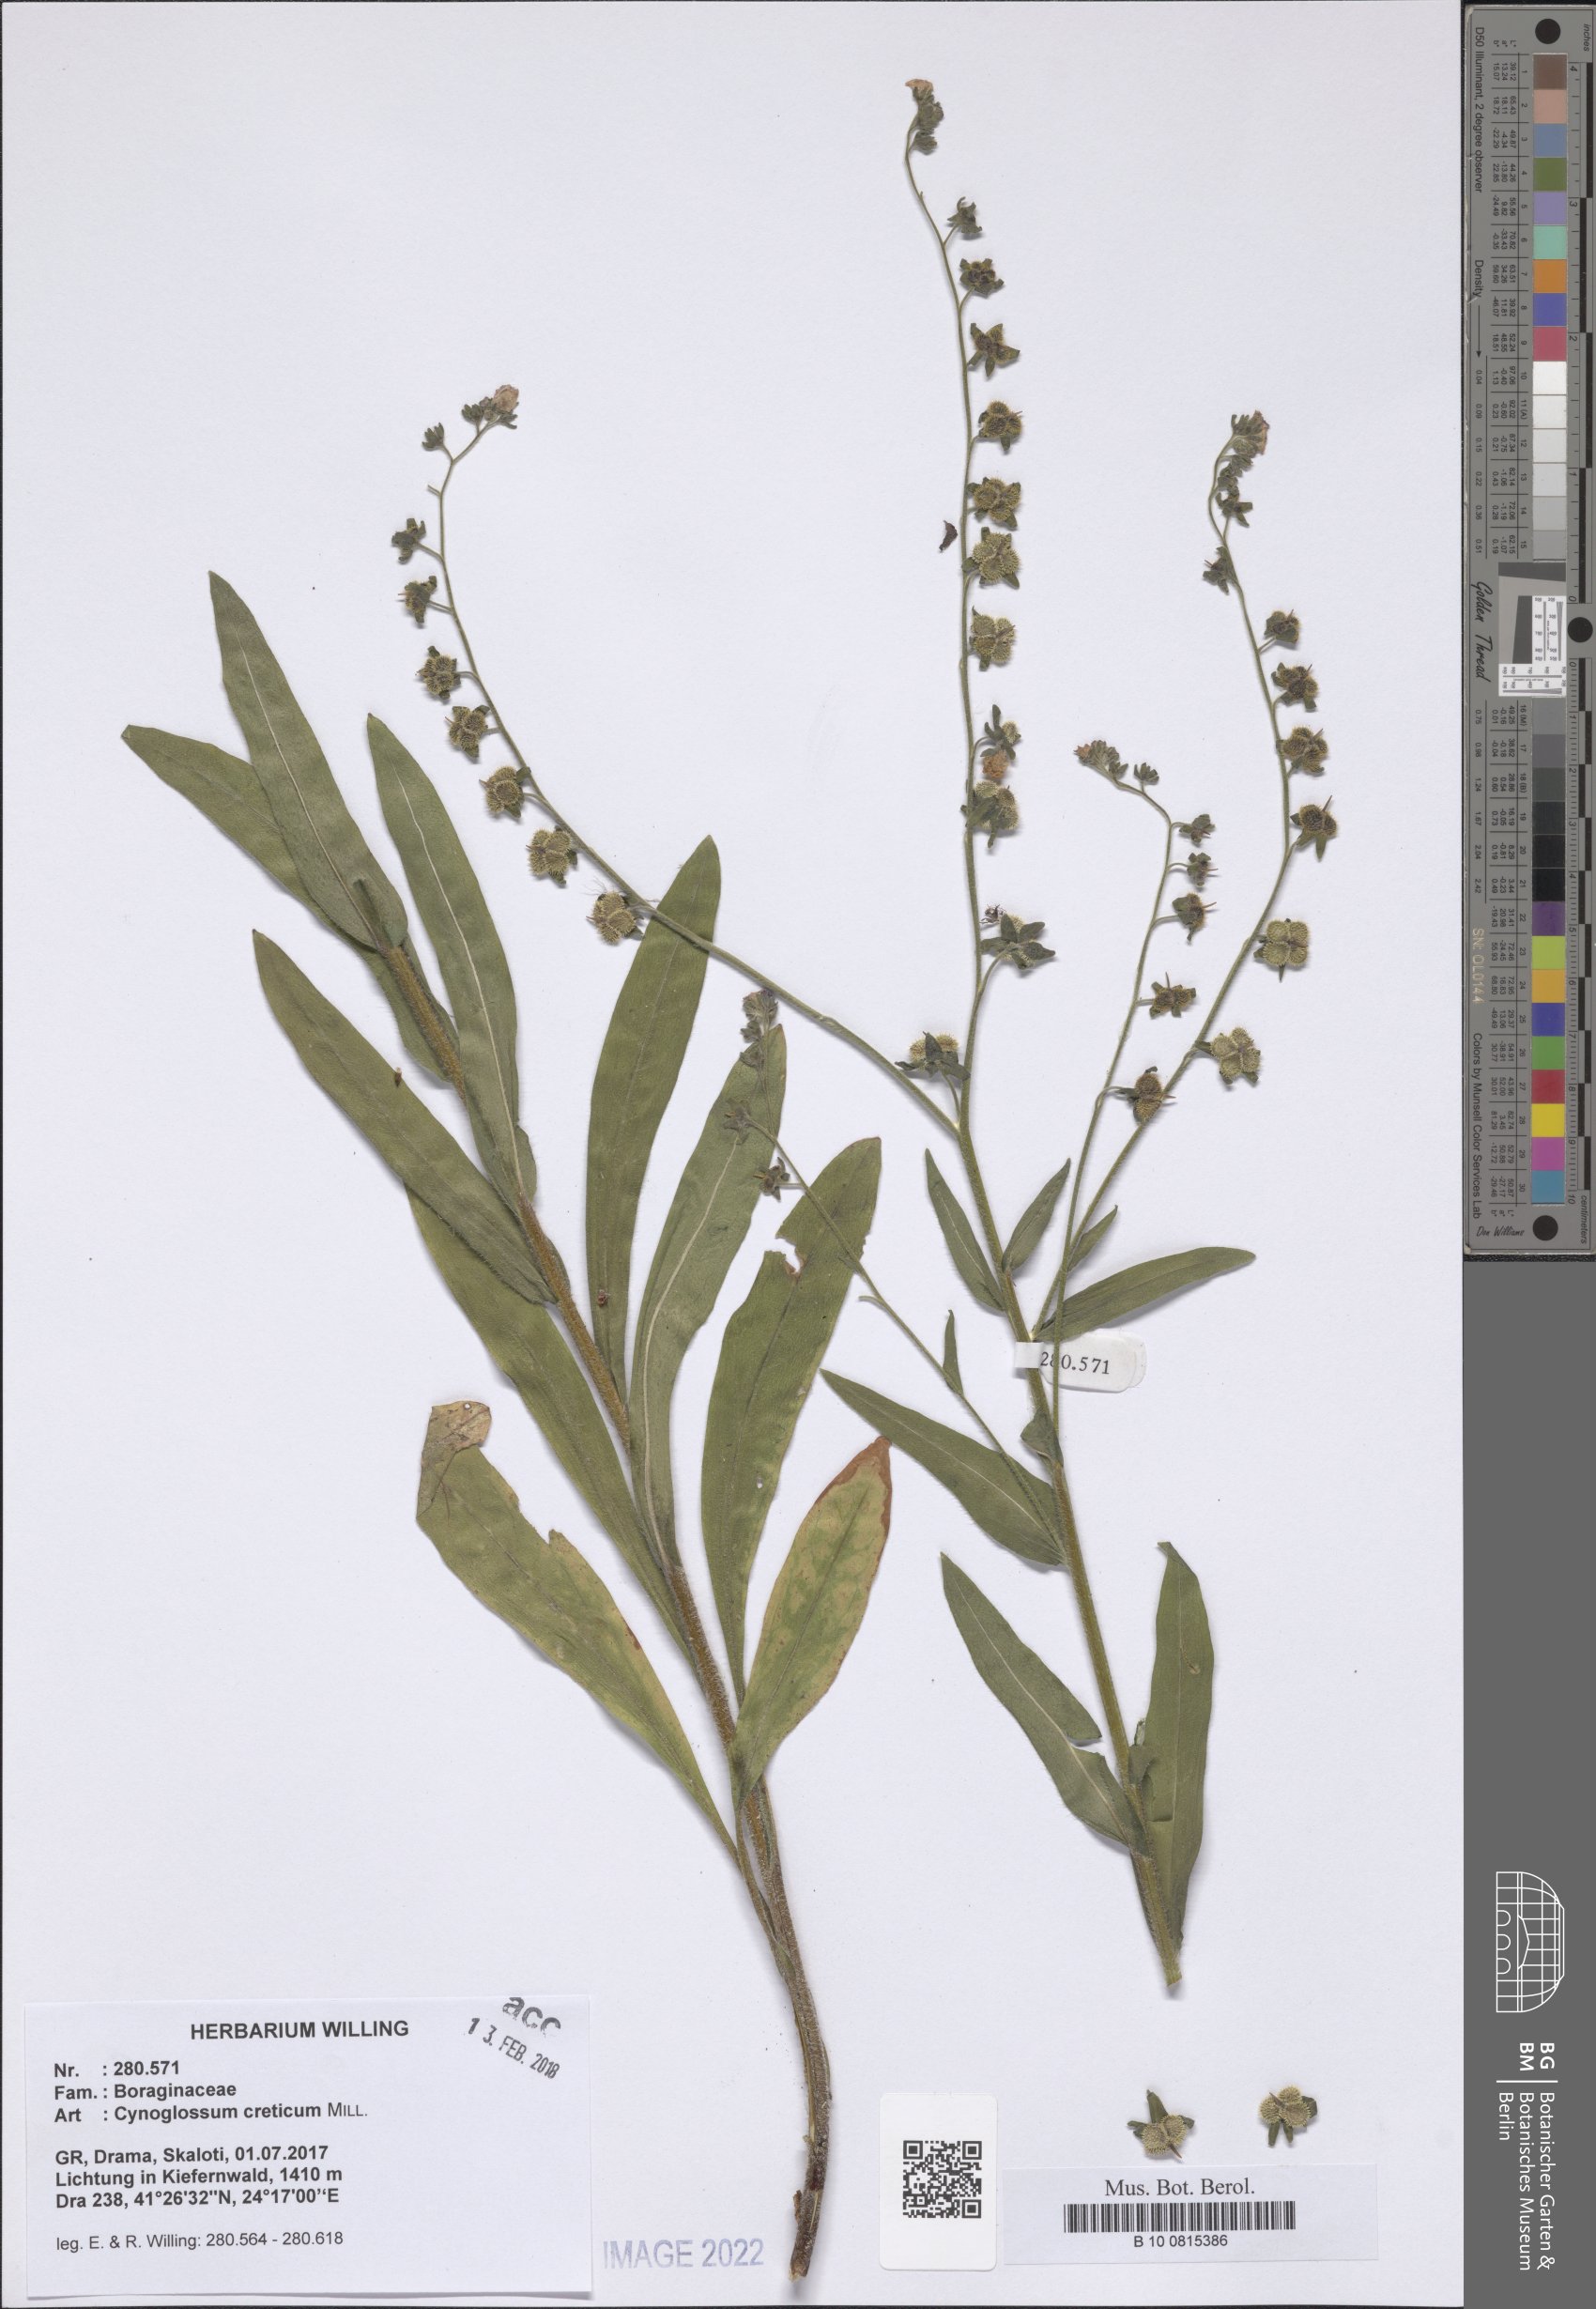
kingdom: Plantae
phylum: Tracheophyta
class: Magnoliopsida
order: Boraginales
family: Boraginaceae
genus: Cynoglossum
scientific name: Cynoglossum creticum
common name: Blue hound's tongue
